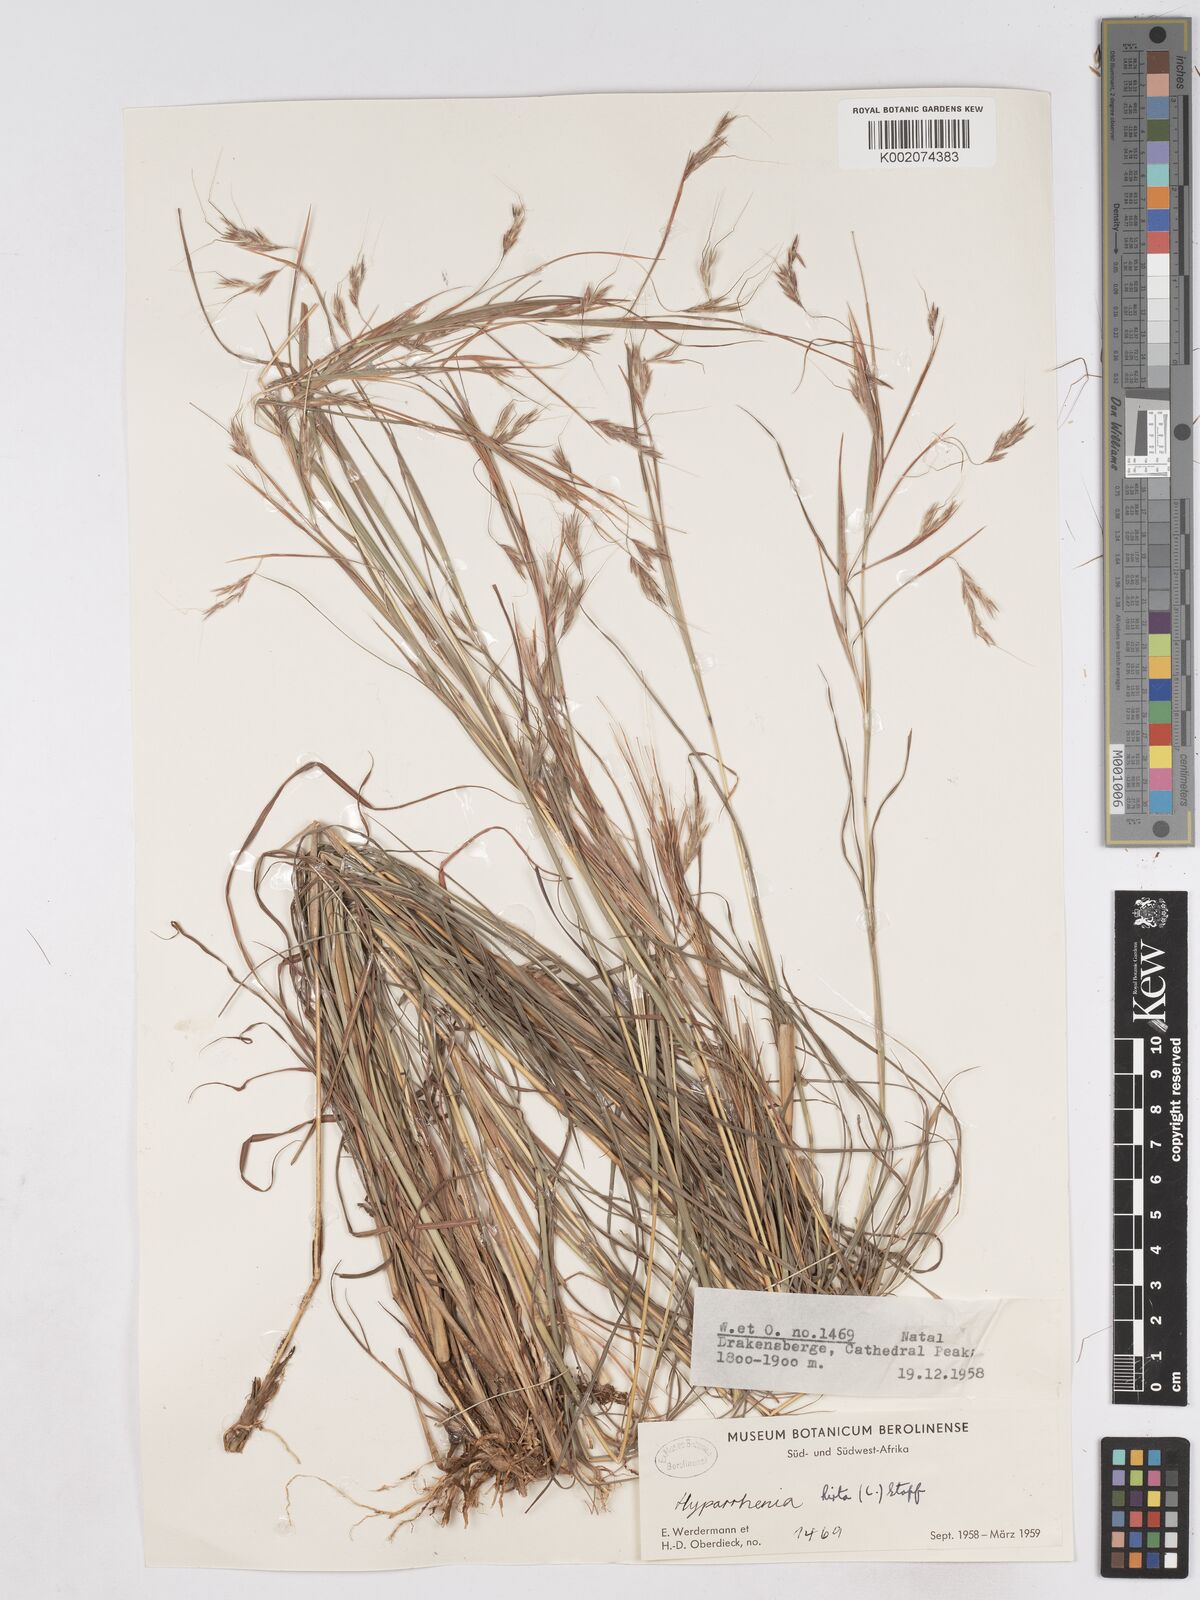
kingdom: Plantae
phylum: Tracheophyta
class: Liliopsida
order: Poales
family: Poaceae
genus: Hyparrhenia
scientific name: Hyparrhenia hirta
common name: Thatching grass
